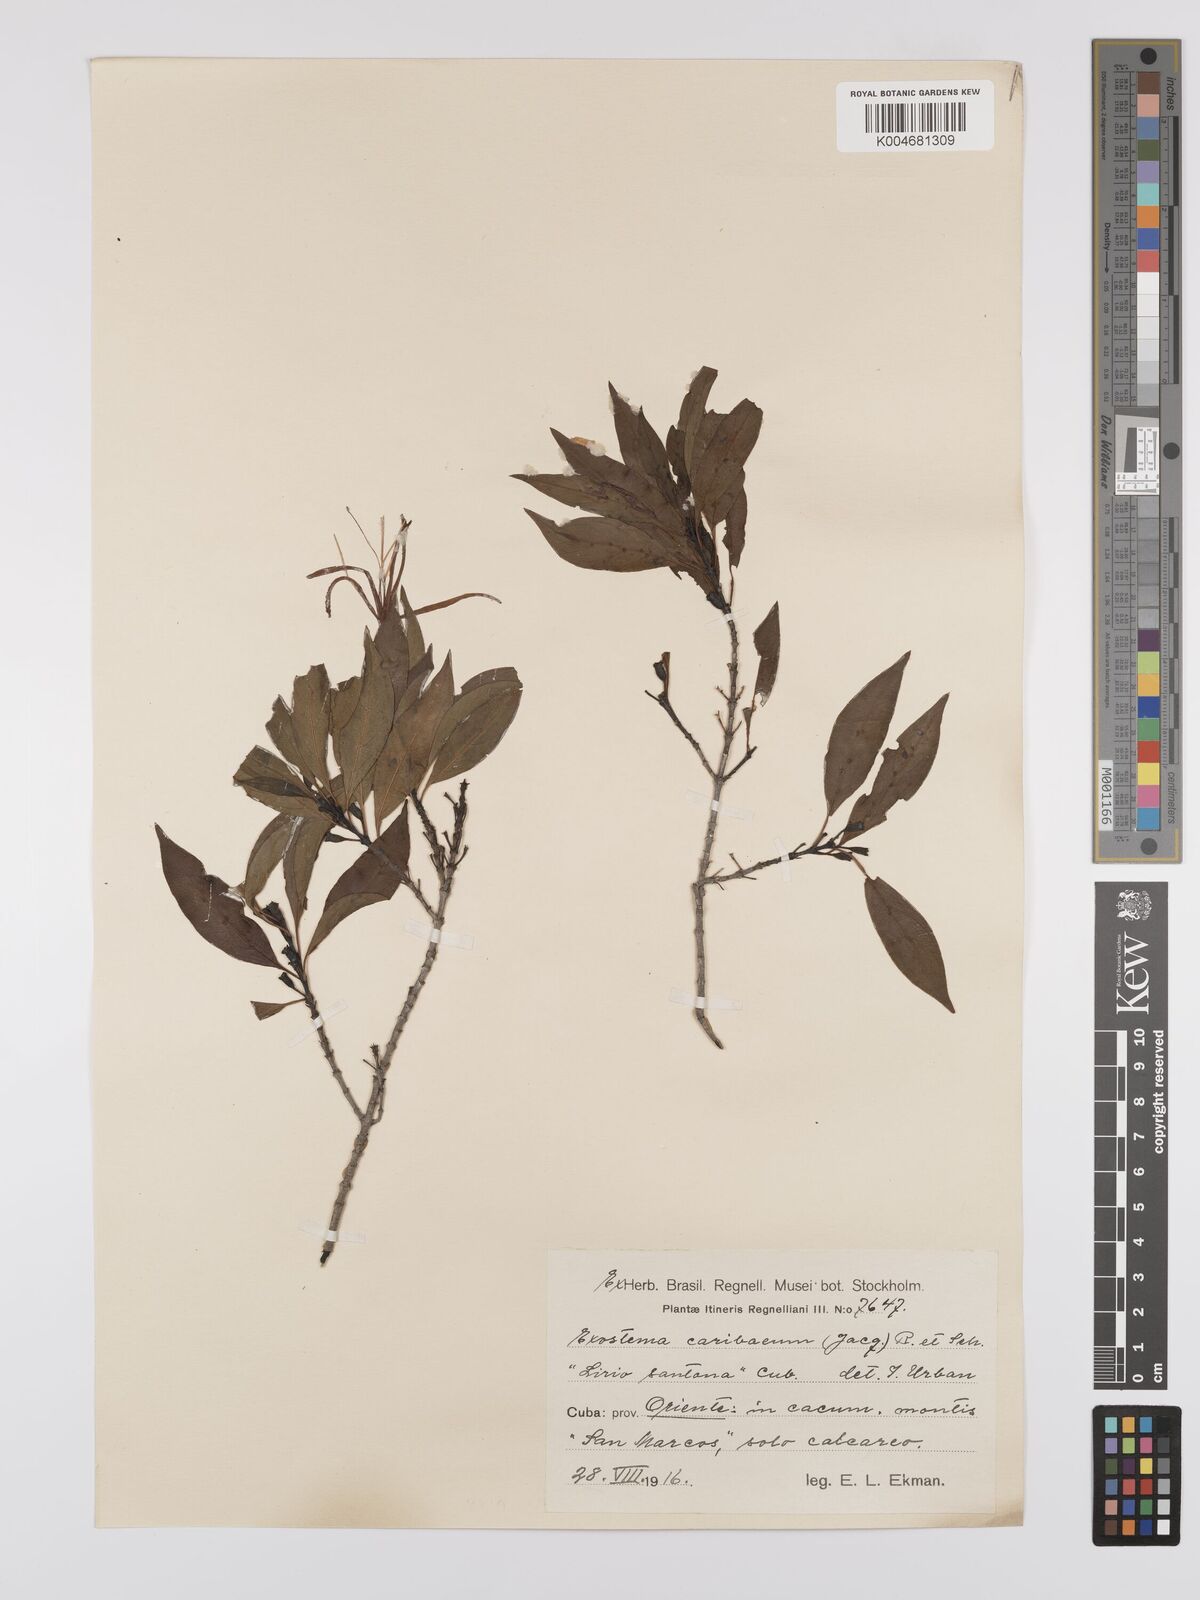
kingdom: Plantae
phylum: Tracheophyta
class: Magnoliopsida
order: Gentianales
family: Rubiaceae
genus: Exostema
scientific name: Exostema caribaeum
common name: Princewood
